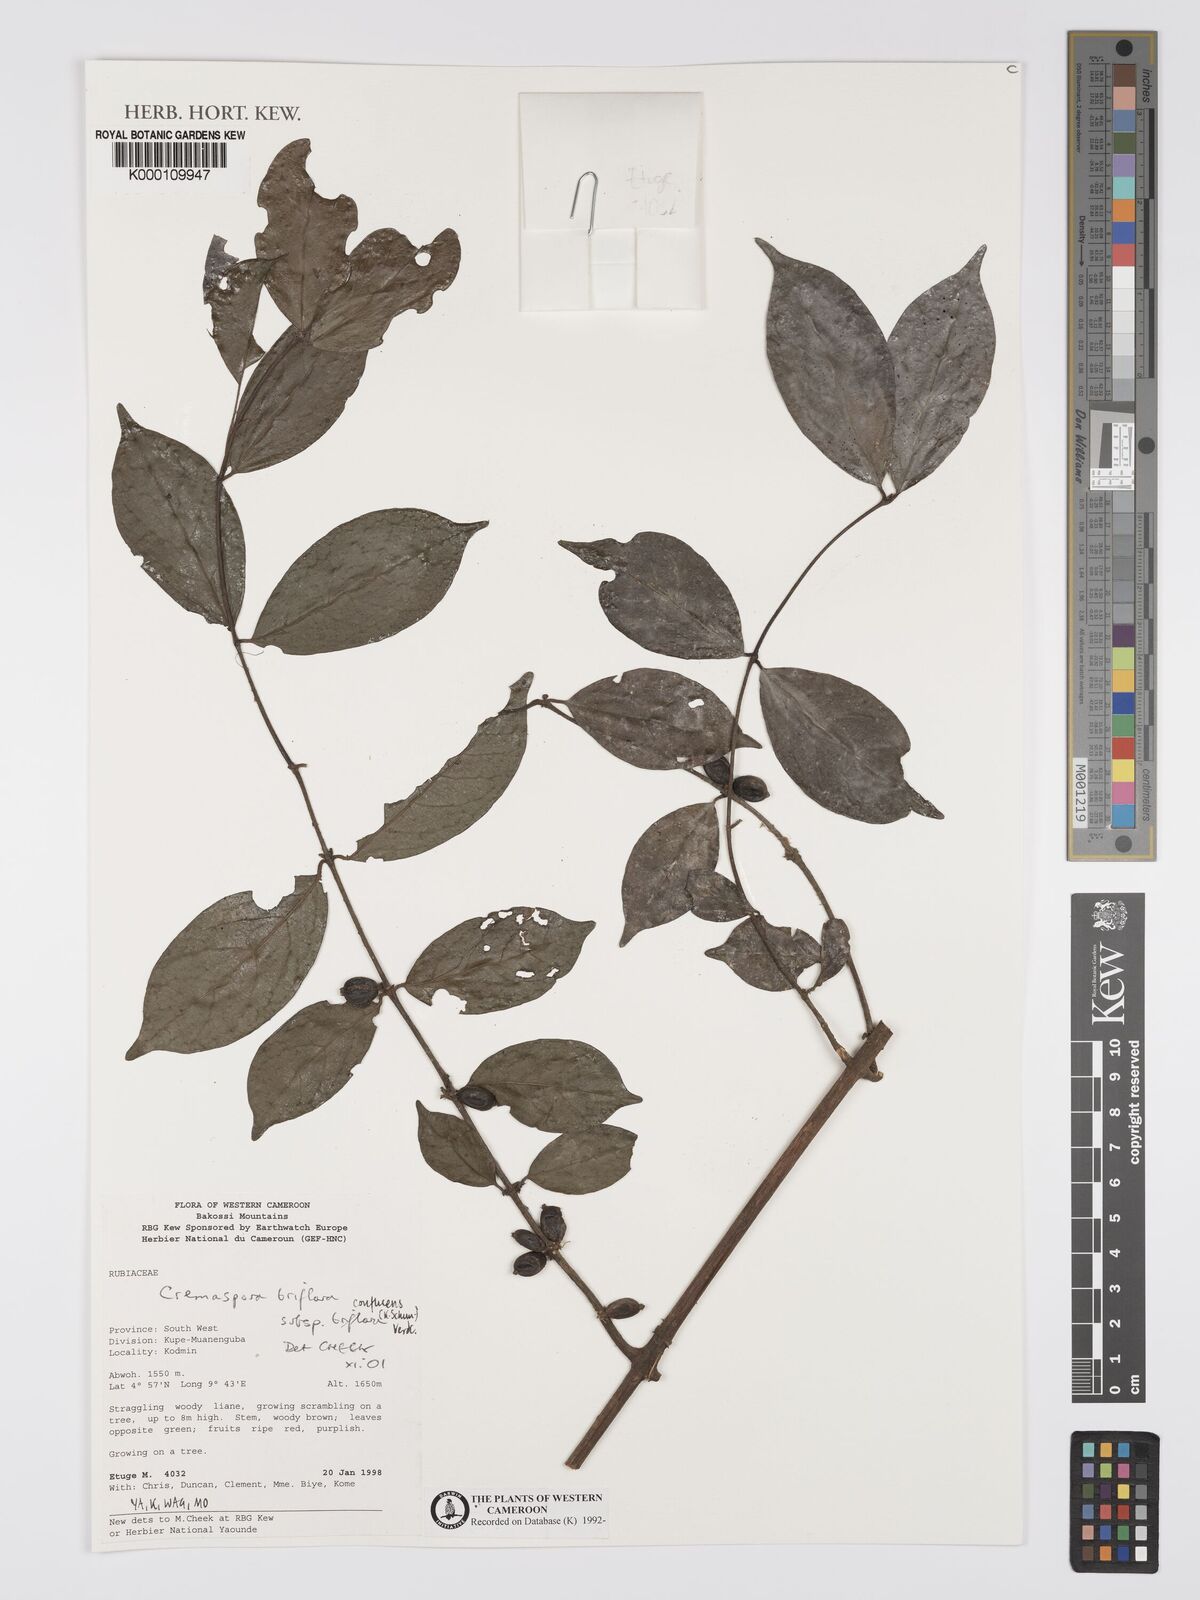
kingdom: Plantae
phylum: Tracheophyta
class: Magnoliopsida
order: Gentianales
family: Rubiaceae
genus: Cremaspora
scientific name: Cremaspora triflora
